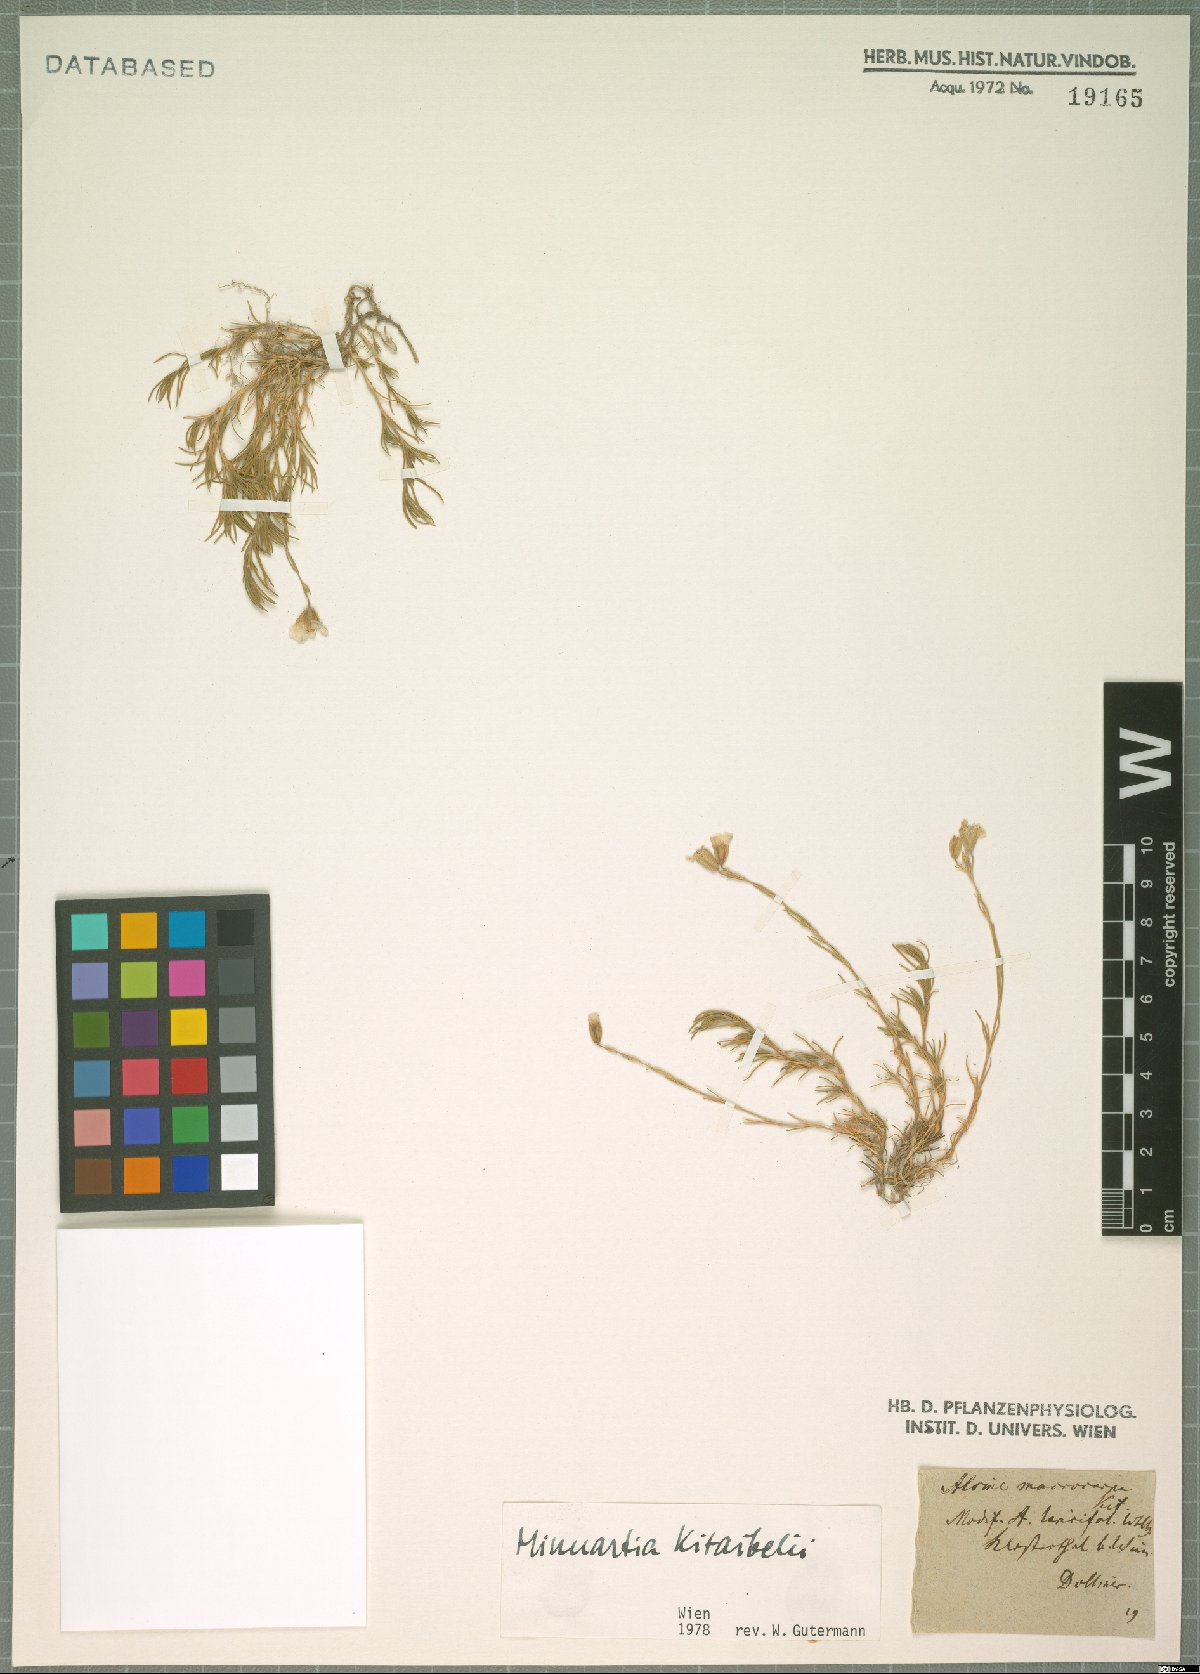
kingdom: Plantae
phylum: Tracheophyta
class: Magnoliopsida
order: Caryophyllales
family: Caryophyllaceae
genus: Cherleria
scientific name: Cherleria langii
